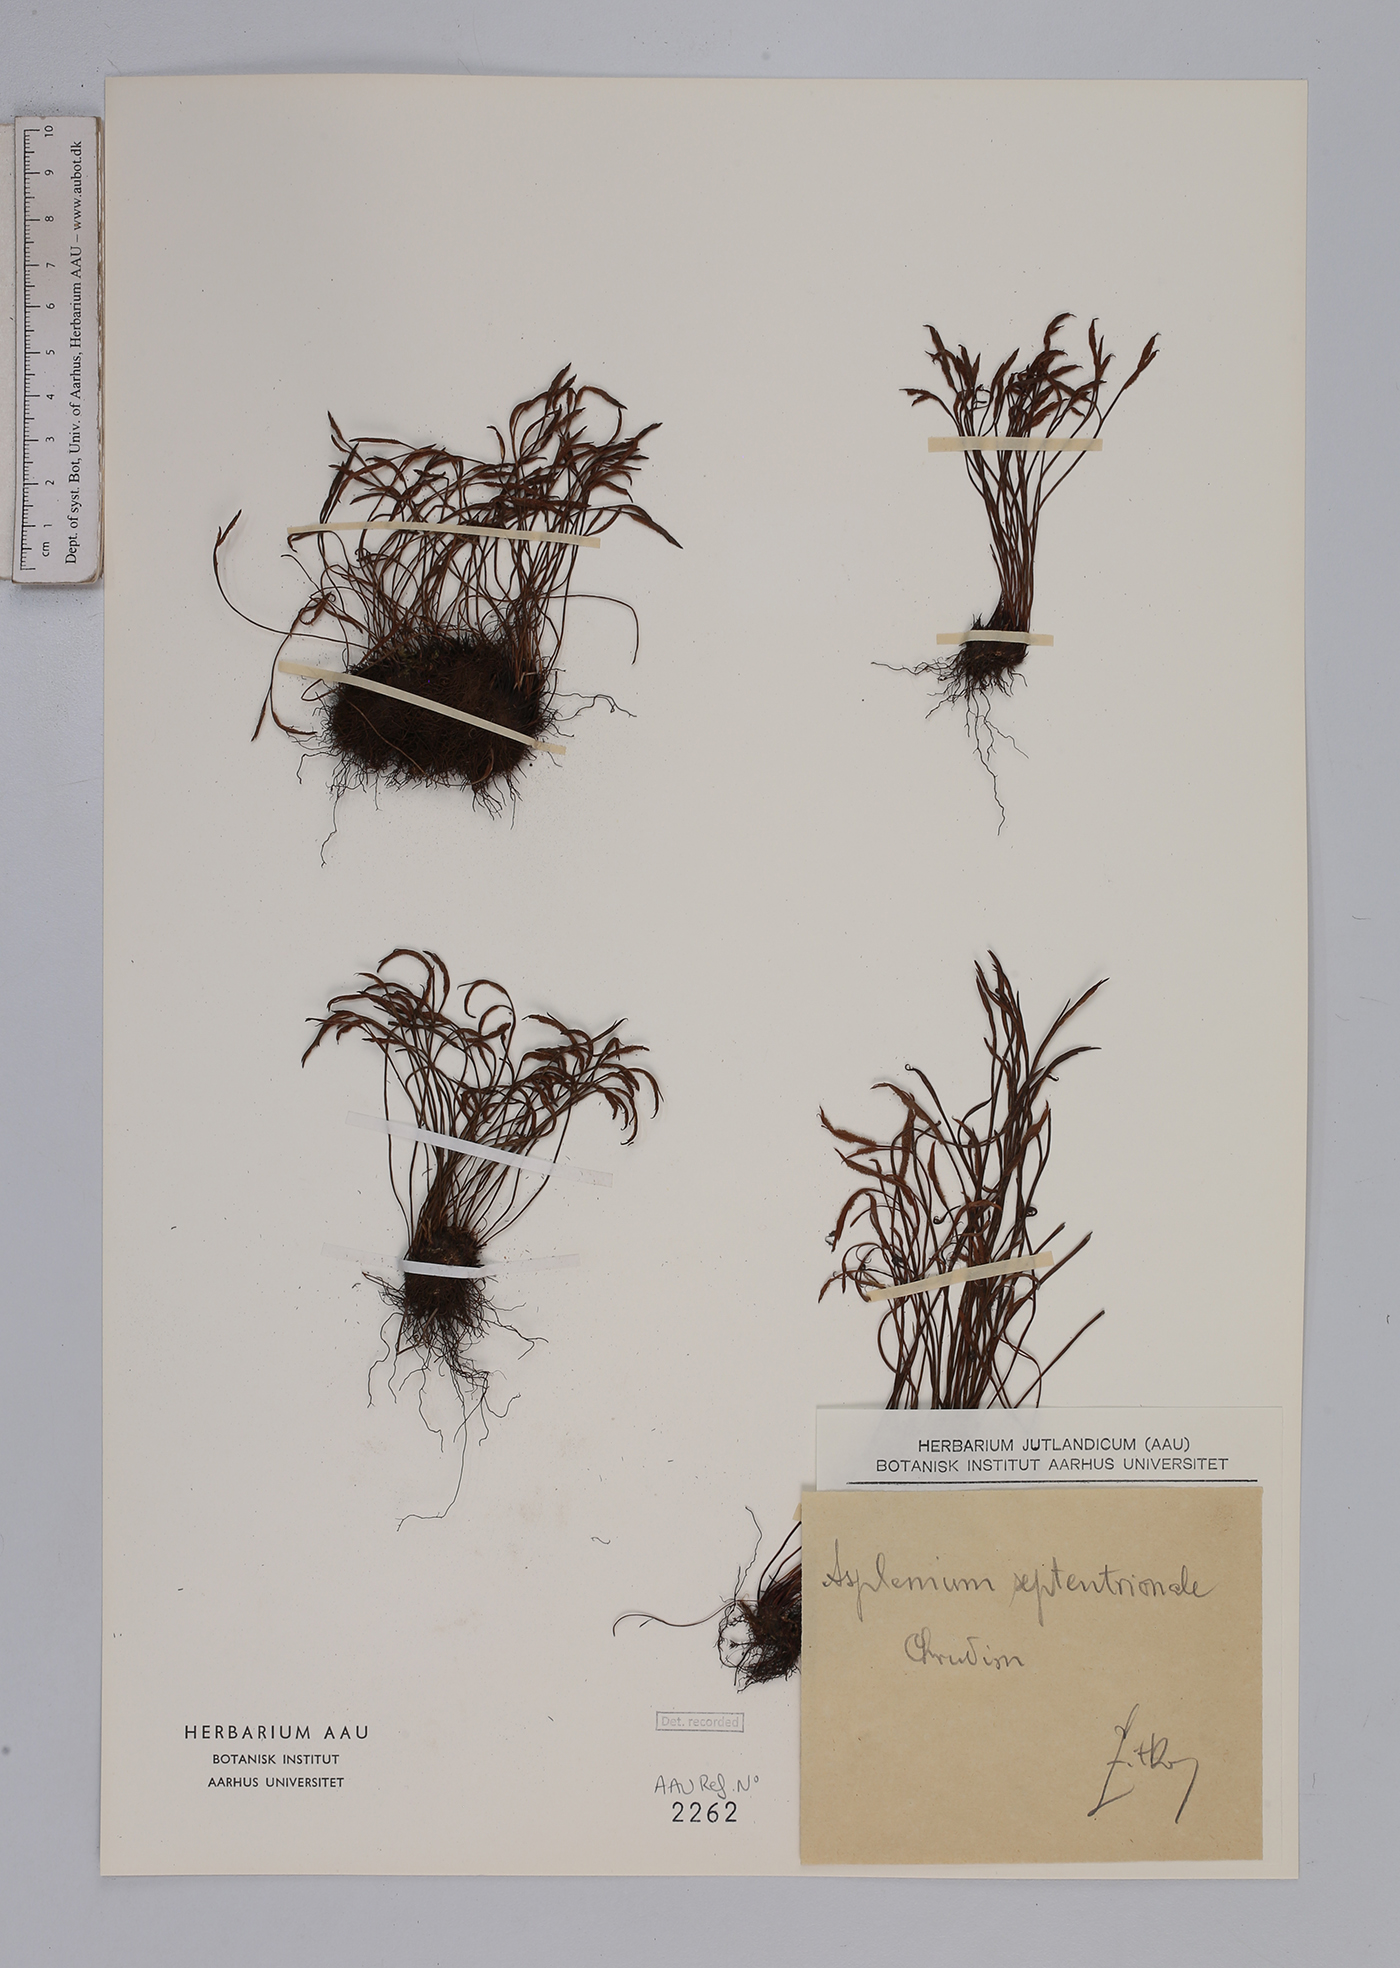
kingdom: Plantae
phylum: Tracheophyta
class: Polypodiopsida
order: Polypodiales
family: Aspleniaceae
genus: Asplenium
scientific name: Asplenium septentrionale
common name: Forked spleenwort
